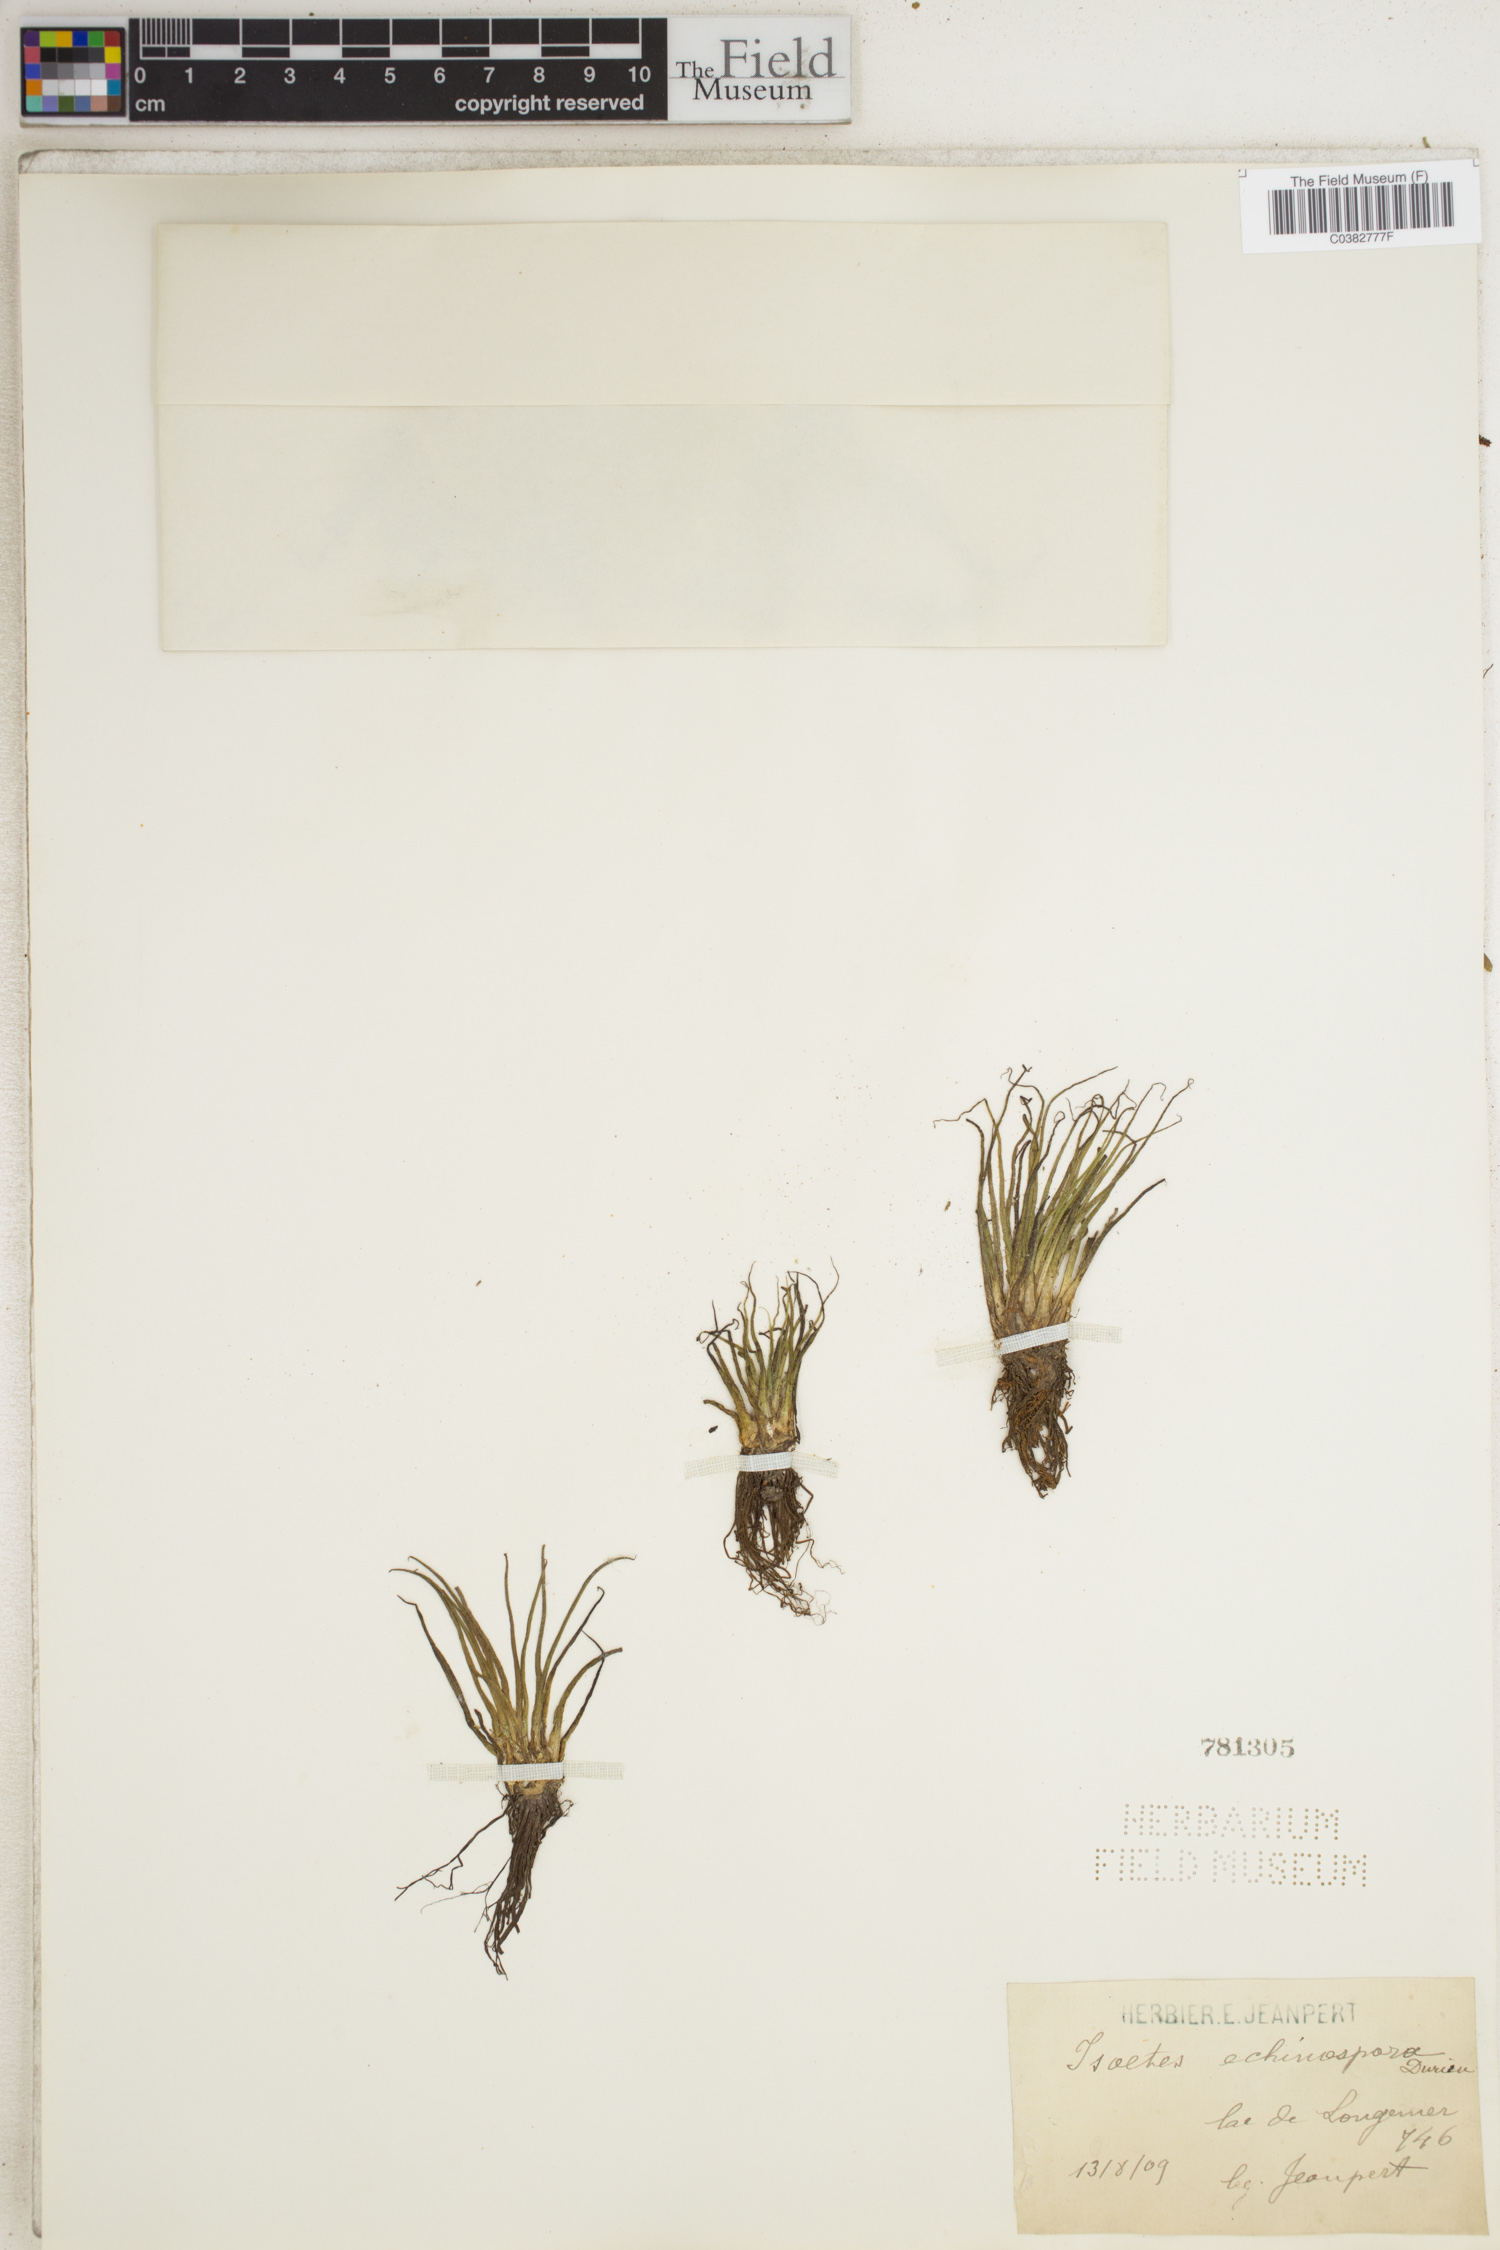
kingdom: Plantae
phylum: Tracheophyta
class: Lycopodiopsida
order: Isoetales
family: Isoetaceae
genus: Isoetes
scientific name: Isoetes echinospora
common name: Spring quillwort
